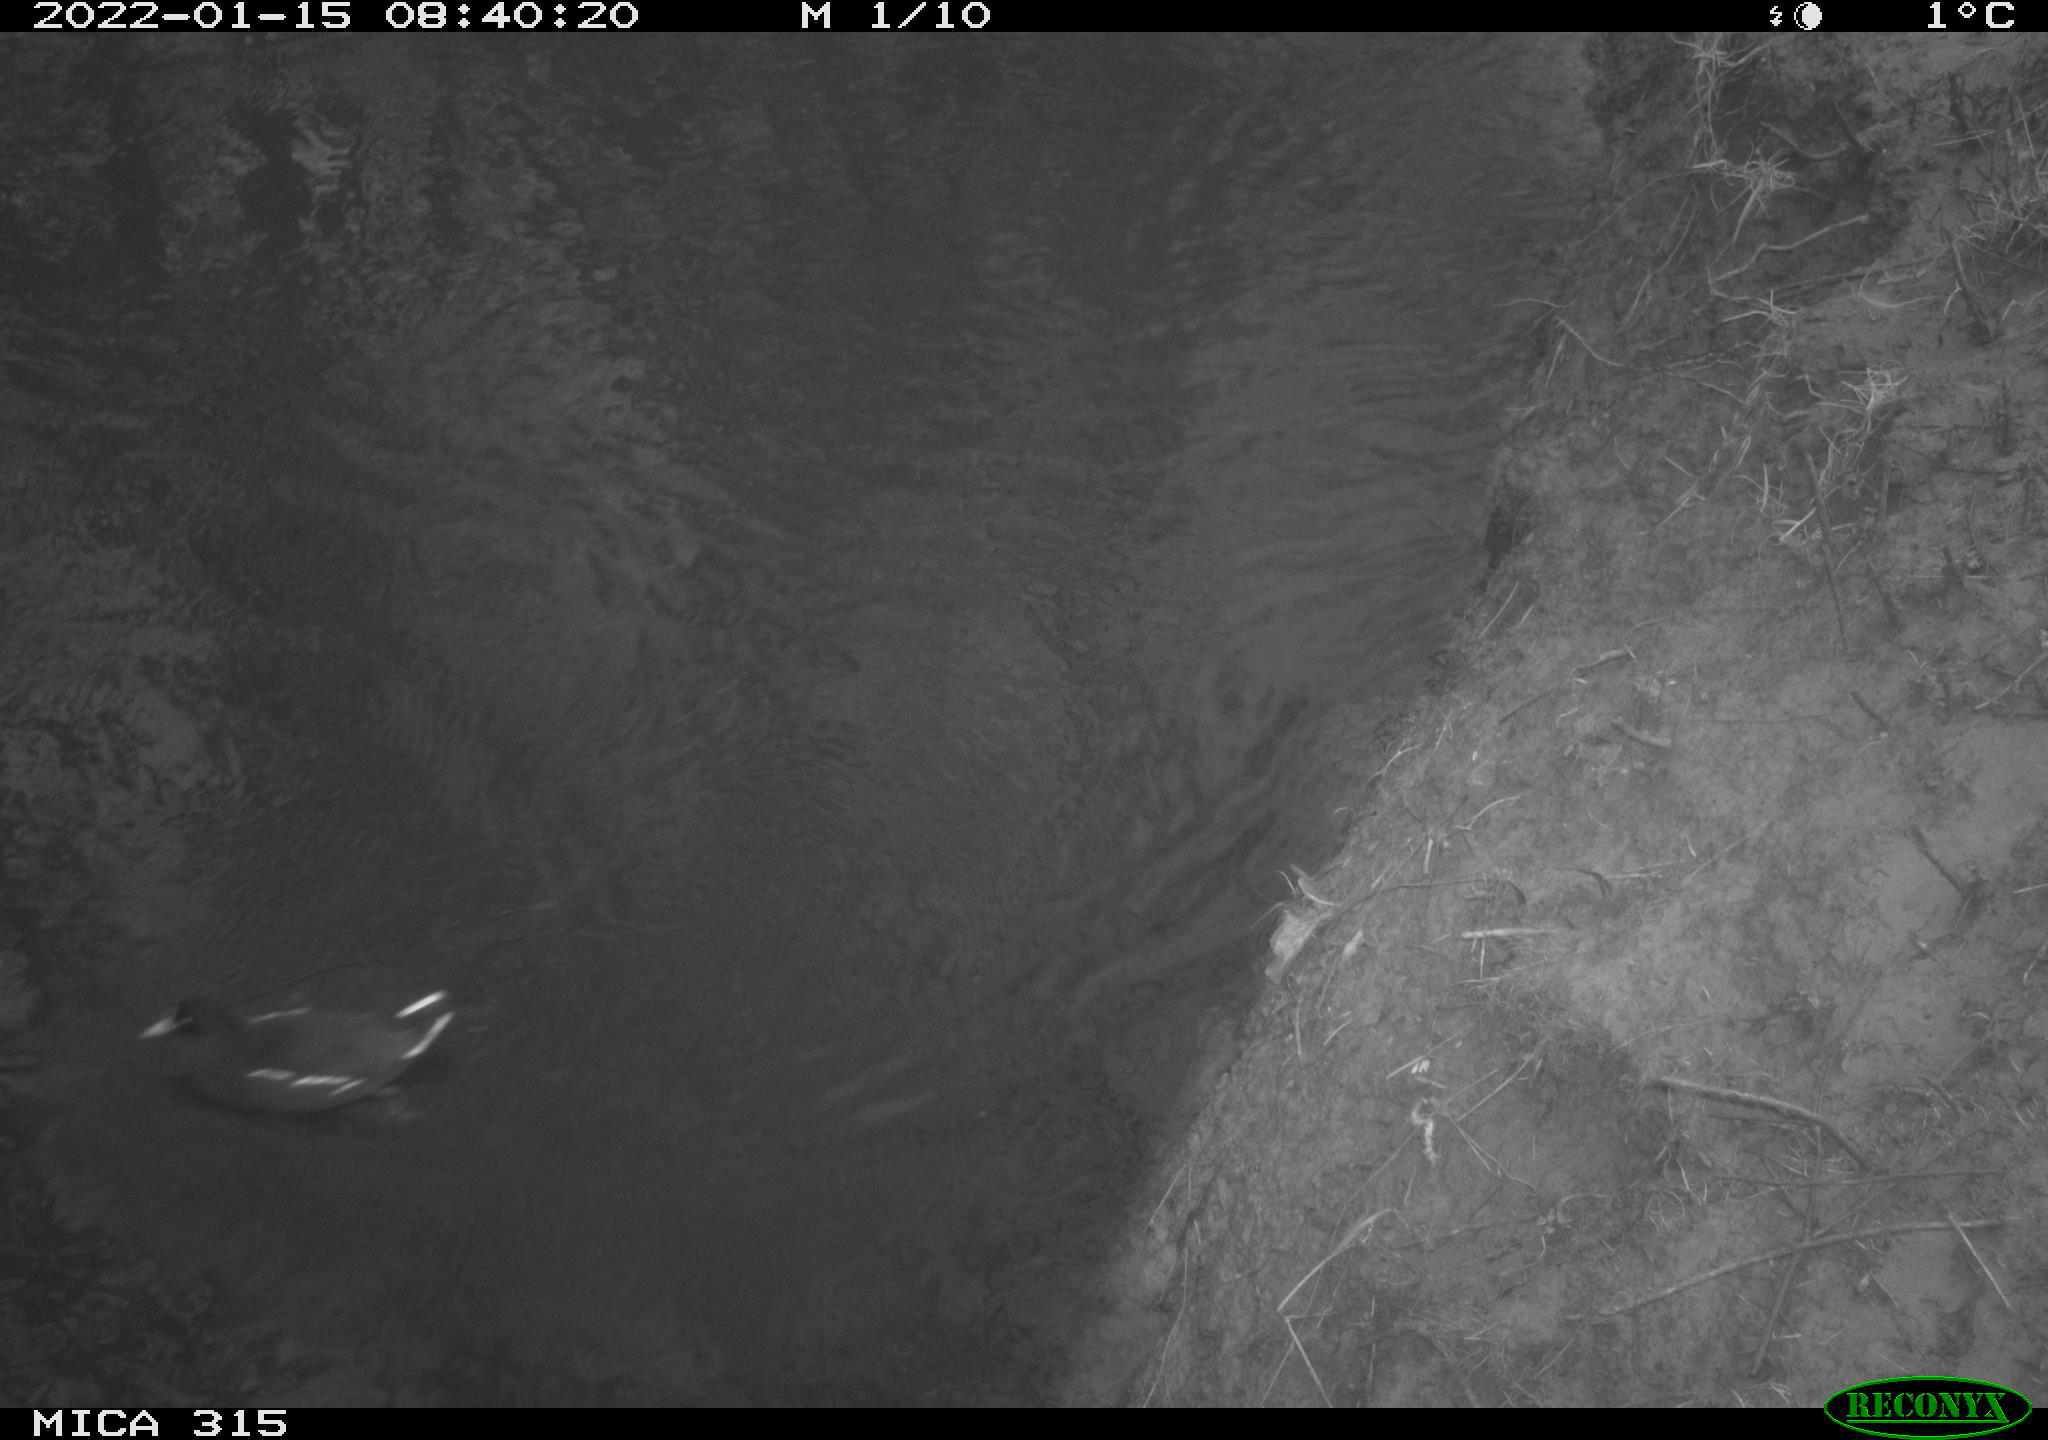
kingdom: Animalia
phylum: Chordata
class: Aves
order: Gruiformes
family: Rallidae
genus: Gallinula
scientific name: Gallinula chloropus
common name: Common moorhen
